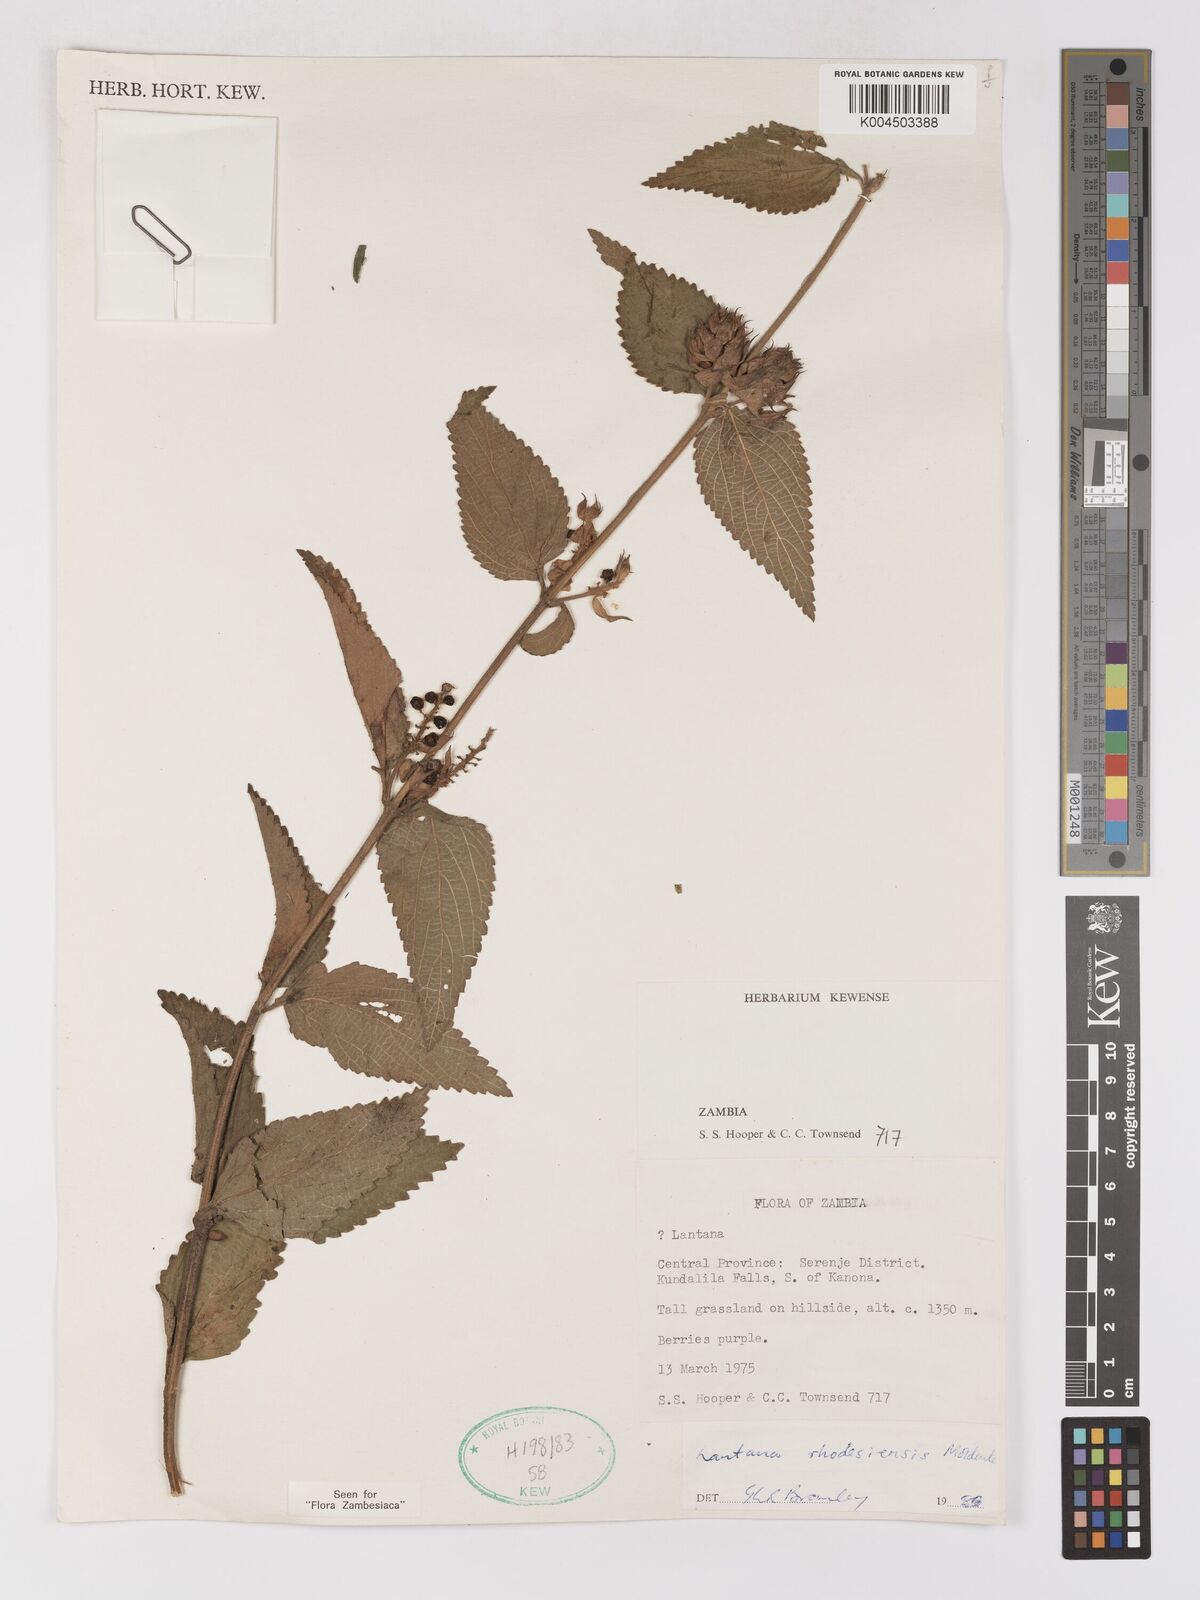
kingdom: Plantae
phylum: Tracheophyta
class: Magnoliopsida
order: Lamiales
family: Verbenaceae
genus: Lantana
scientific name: Lantana ukambensis
